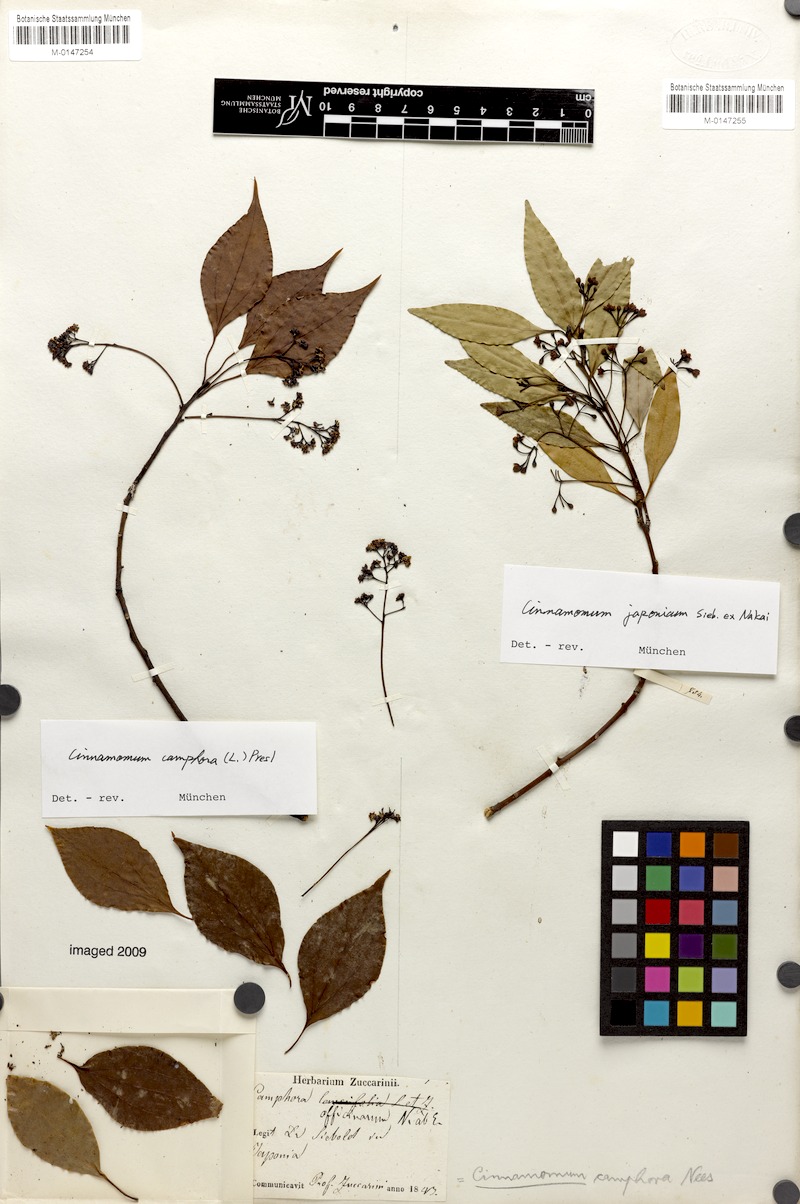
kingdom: Plantae
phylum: Tracheophyta
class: Magnoliopsida
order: Laurales
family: Lauraceae
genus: Cinnamomum
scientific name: Cinnamomum camphora
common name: Camphortree
